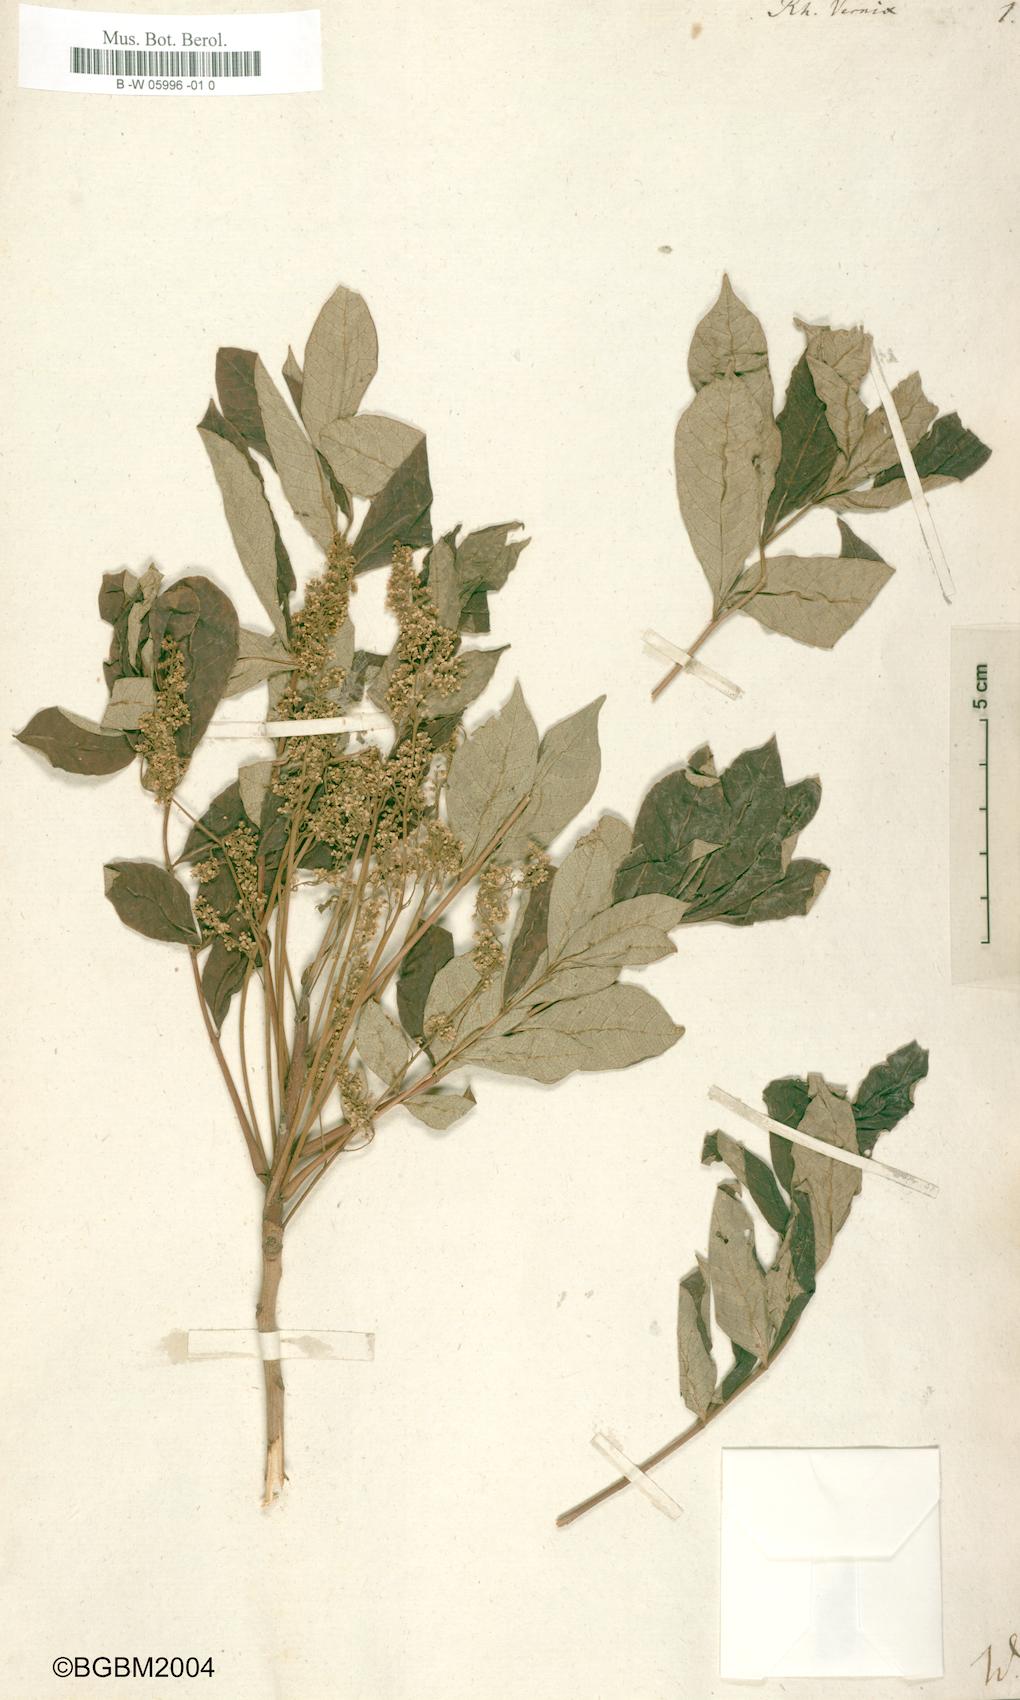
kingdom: Plantae
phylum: Tracheophyta
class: Magnoliopsida
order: Sapindales
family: Anacardiaceae
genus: Toxicodendron
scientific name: Toxicodendron
